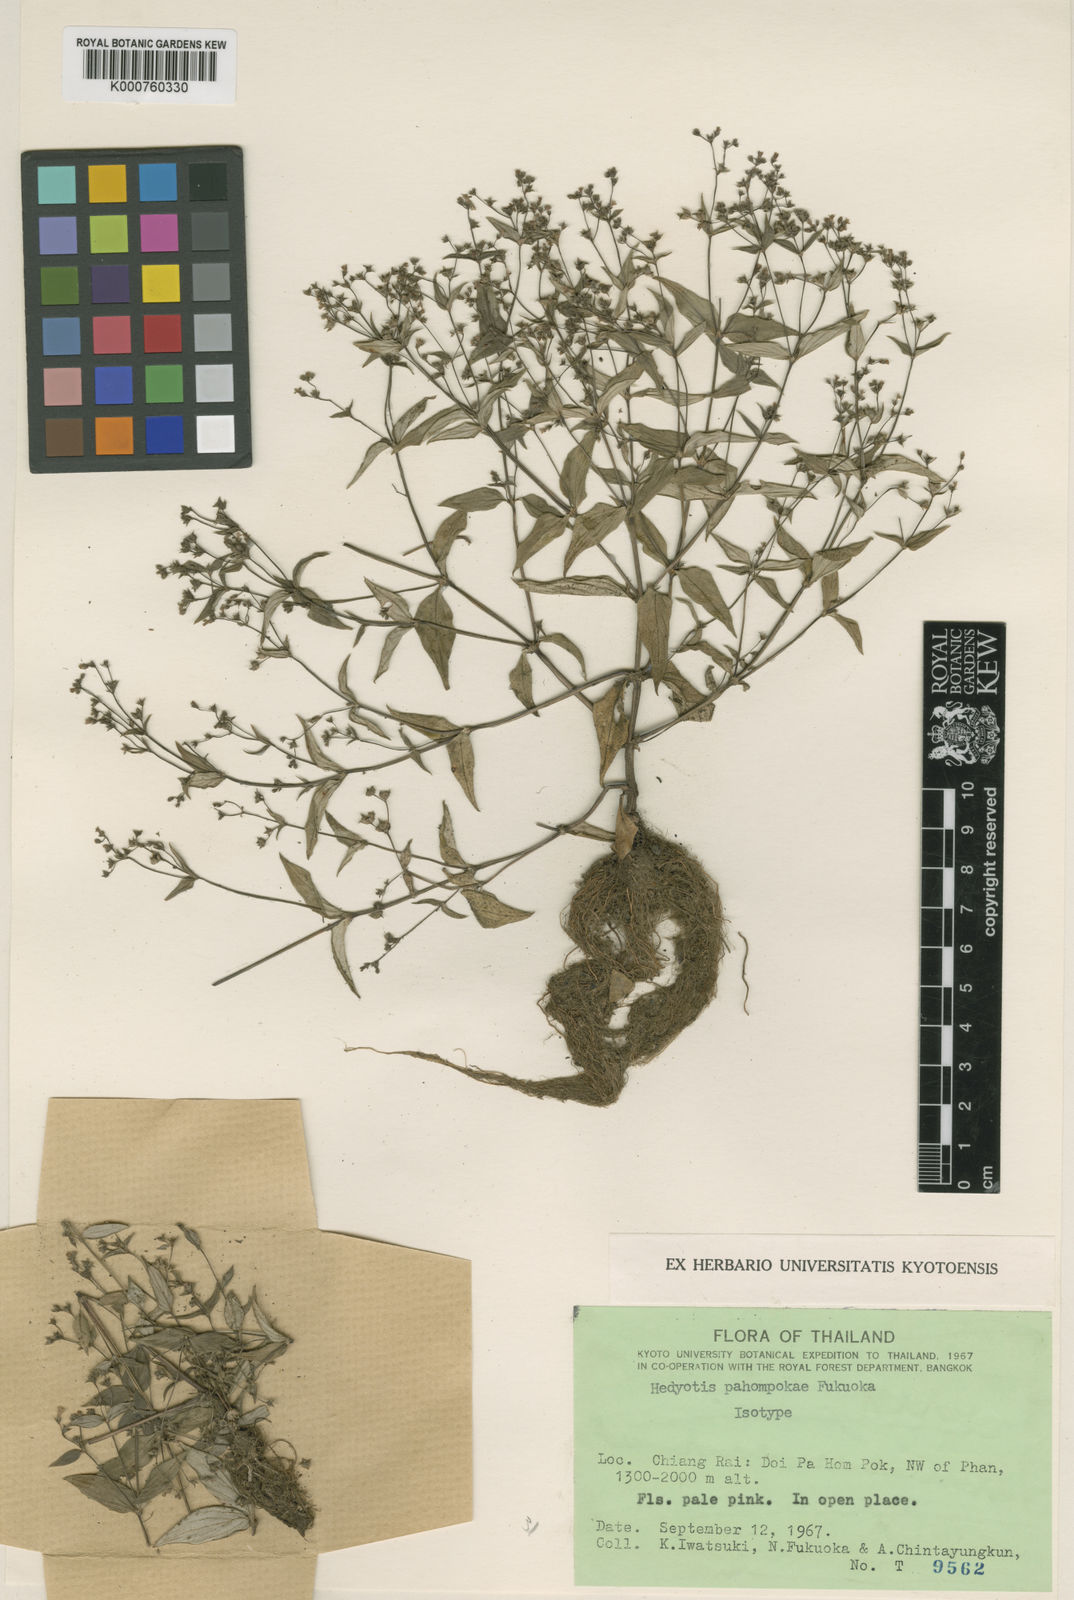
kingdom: Plantae
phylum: Tracheophyta
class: Magnoliopsida
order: Gentianales
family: Rubiaceae
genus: Neanotis
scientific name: Neanotis calycina
